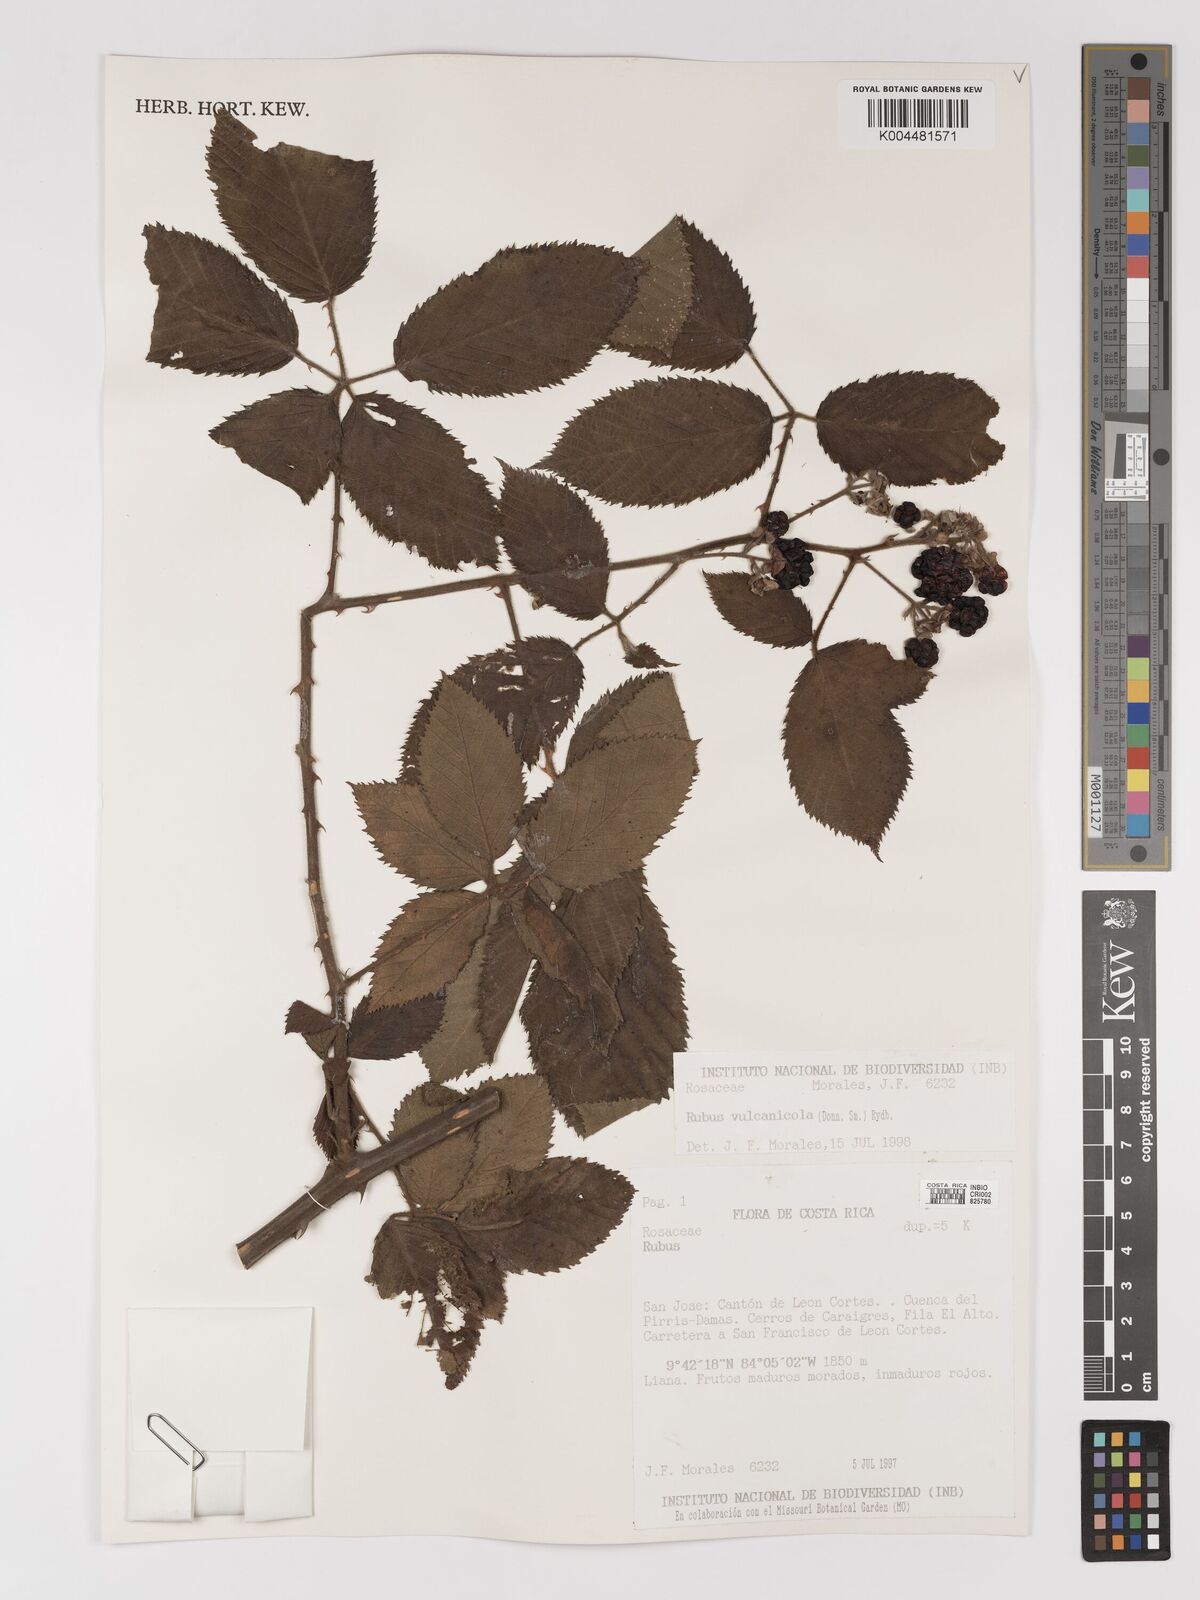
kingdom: Plantae
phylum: Tracheophyta
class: Magnoliopsida
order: Rosales
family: Rosaceae
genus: Rubus
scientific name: Rubus miser
